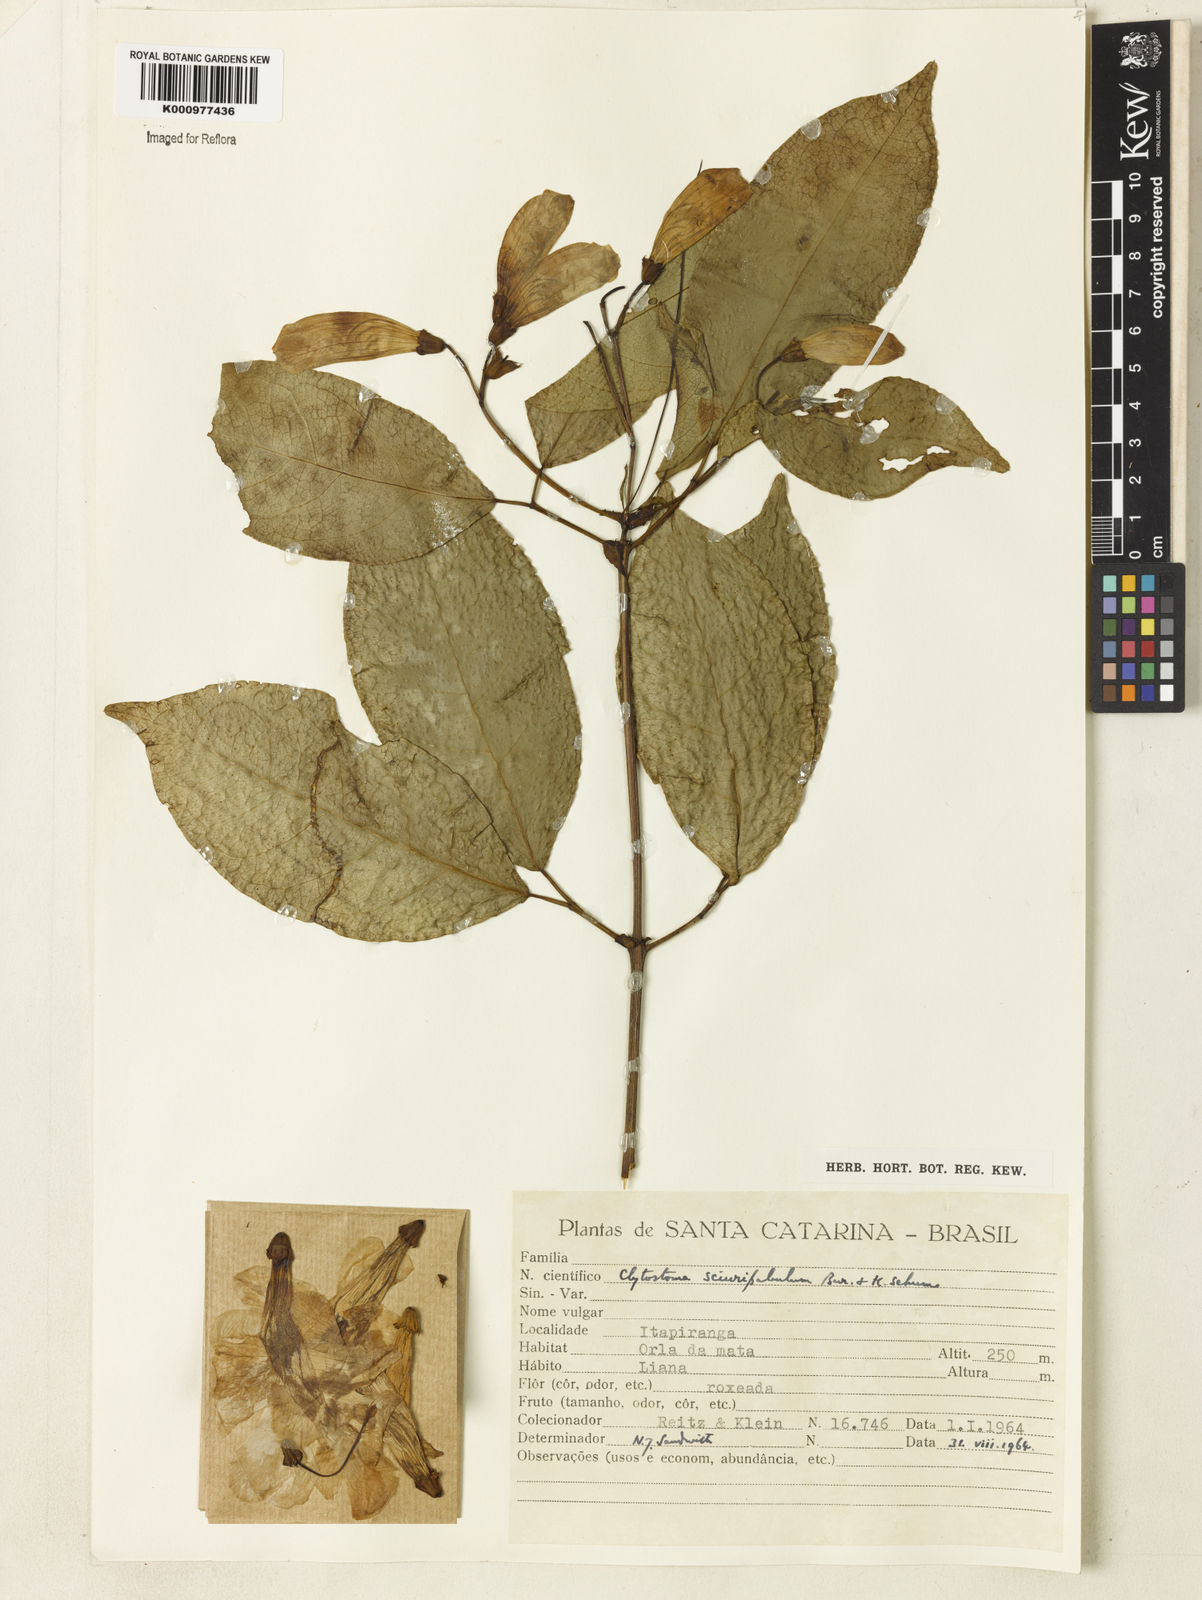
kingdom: Plantae
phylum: Tracheophyta
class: Magnoliopsida
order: Lamiales
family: Bignoniaceae
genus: Bignonia
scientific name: Bignonia
